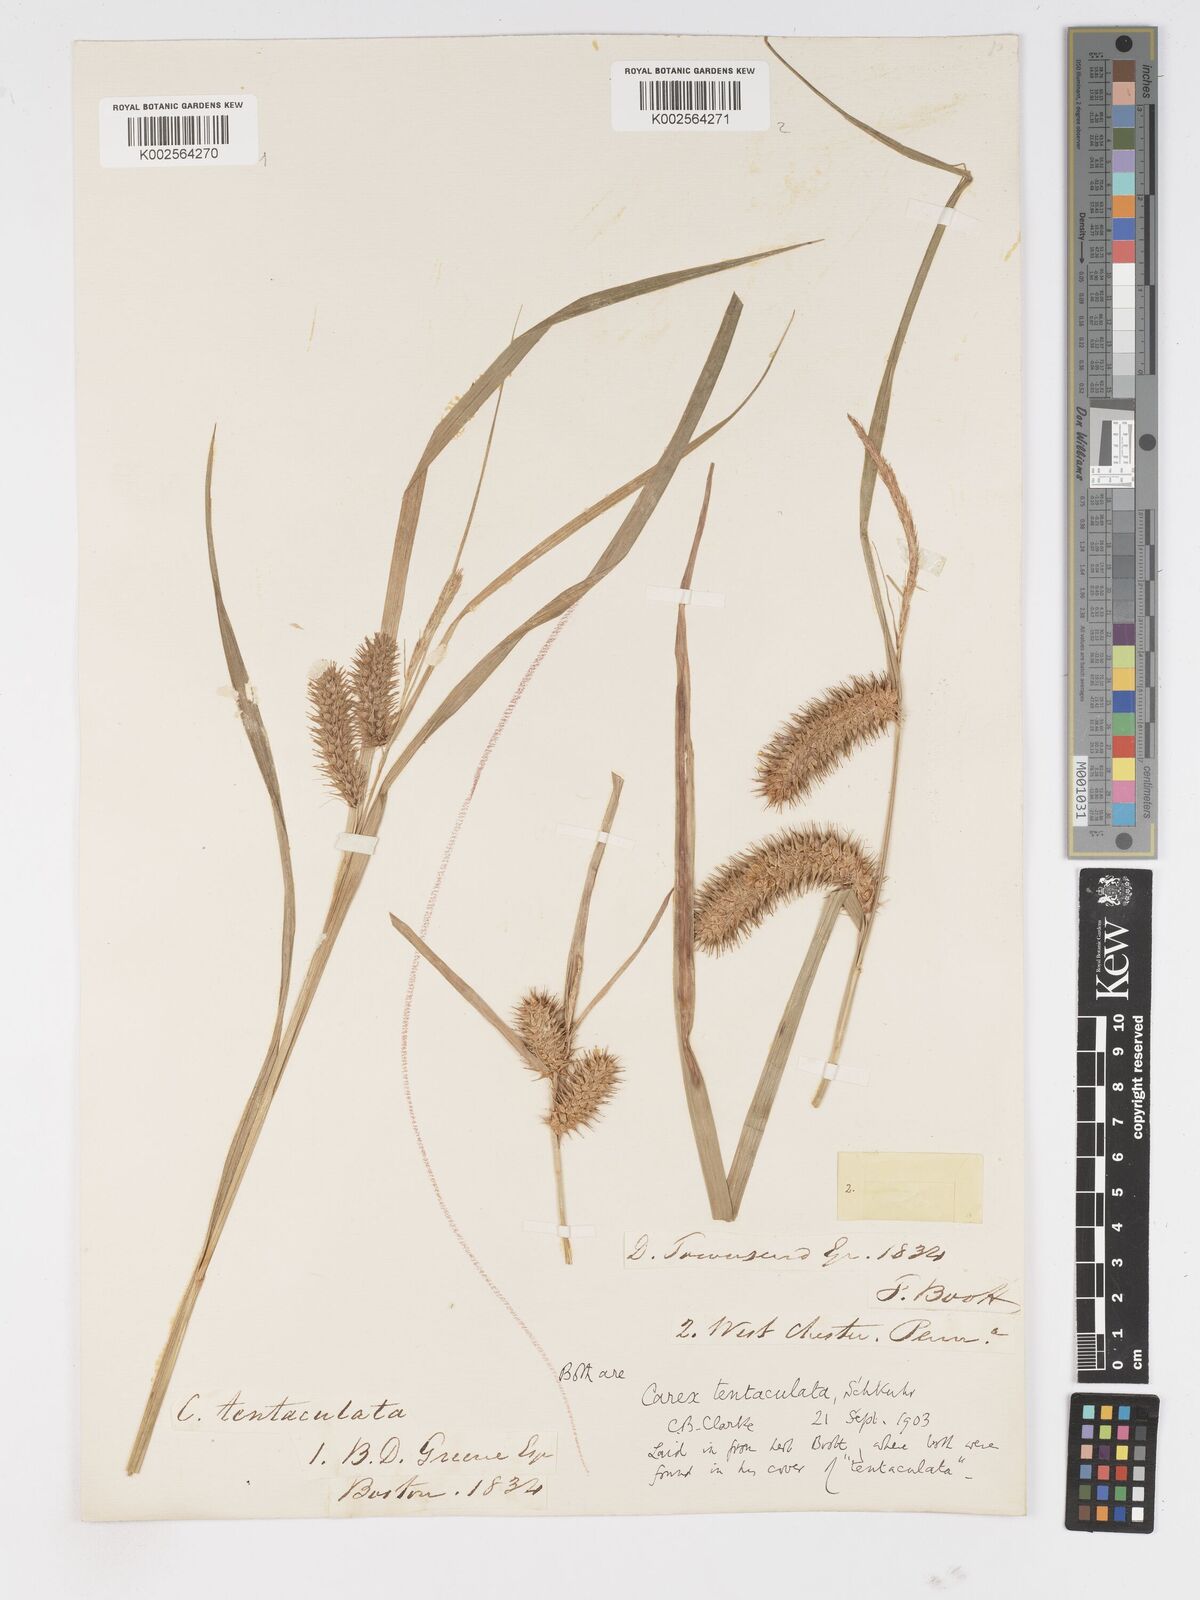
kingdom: Plantae
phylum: Tracheophyta
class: Liliopsida
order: Poales
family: Cyperaceae
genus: Carex
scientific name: Carex lurida
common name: Sallow sedge
